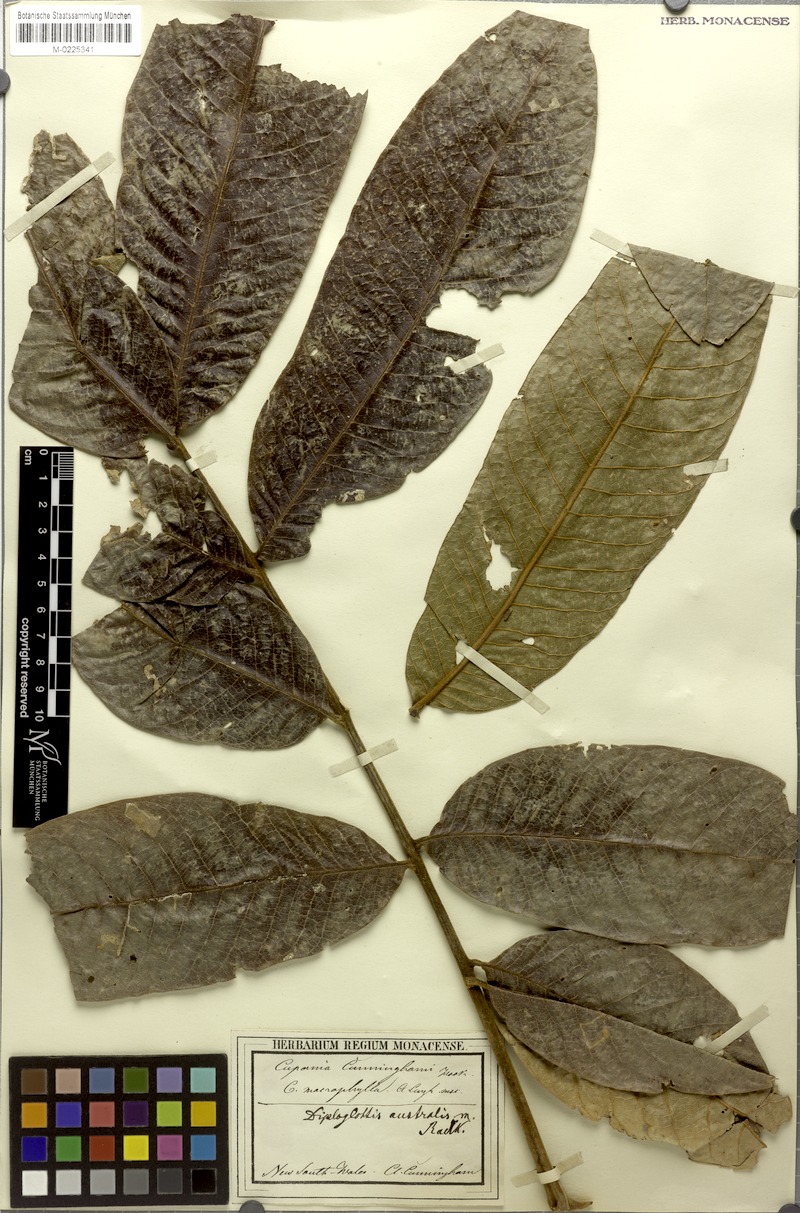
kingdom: Plantae
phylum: Tracheophyta
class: Magnoliopsida
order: Sapindales
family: Sapindaceae
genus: Diploglottis
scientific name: Diploglottis australis
